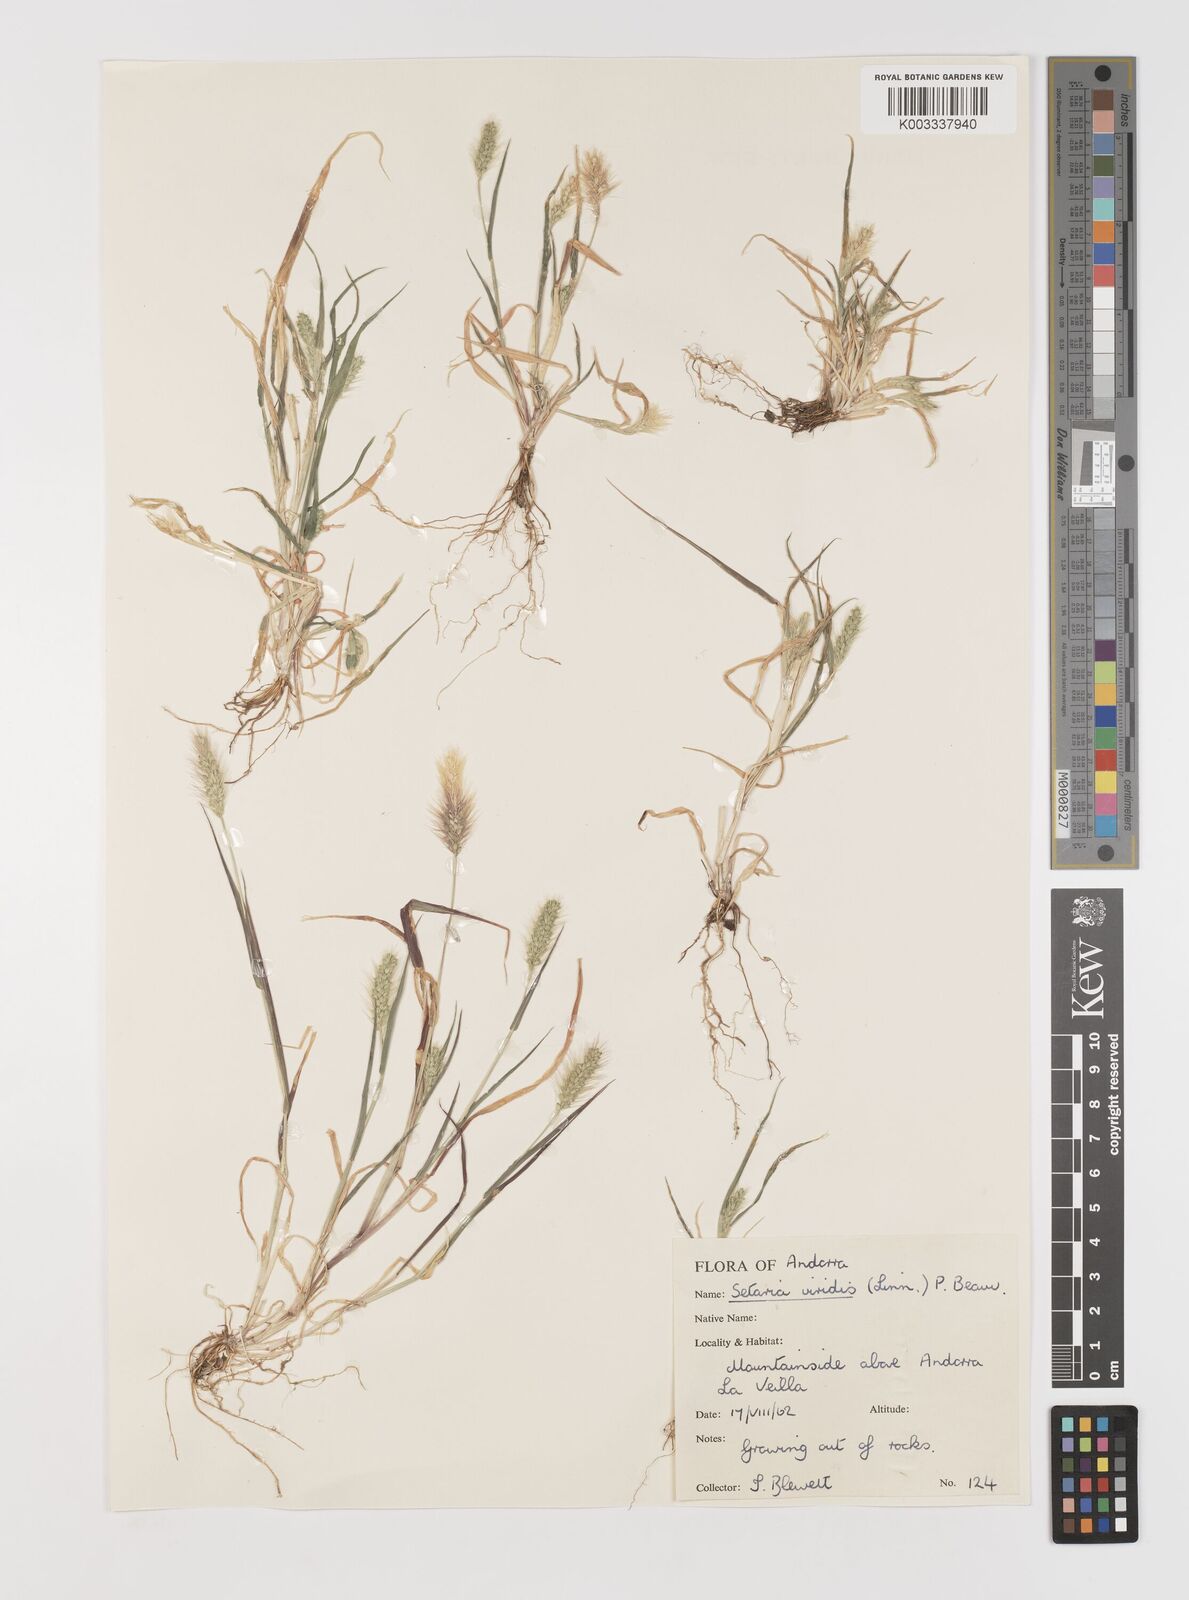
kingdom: Plantae
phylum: Tracheophyta
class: Liliopsida
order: Poales
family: Poaceae
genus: Setaria
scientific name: Setaria viridis
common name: Green bristlegrass
